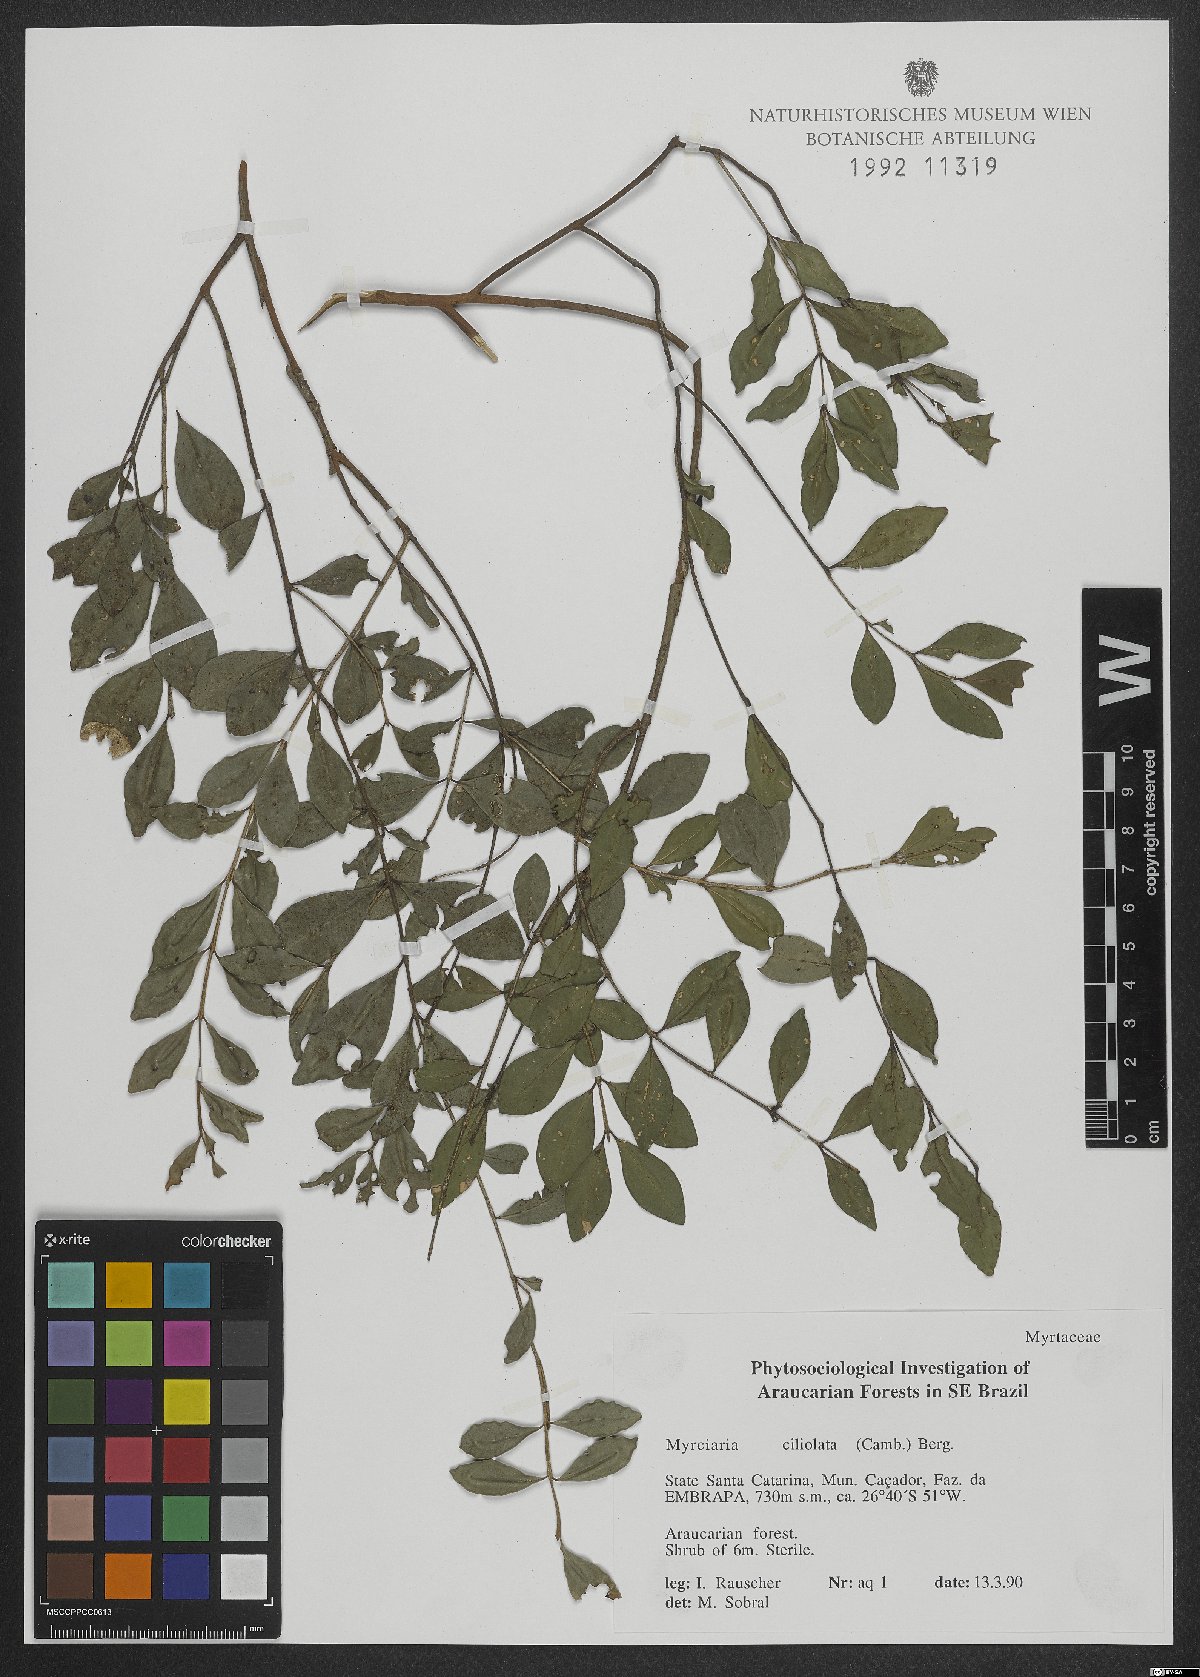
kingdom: Plantae
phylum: Tracheophyta
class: Magnoliopsida
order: Myrtales
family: Myrtaceae
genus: Myrciaria
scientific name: Myrciaria ciliolata
